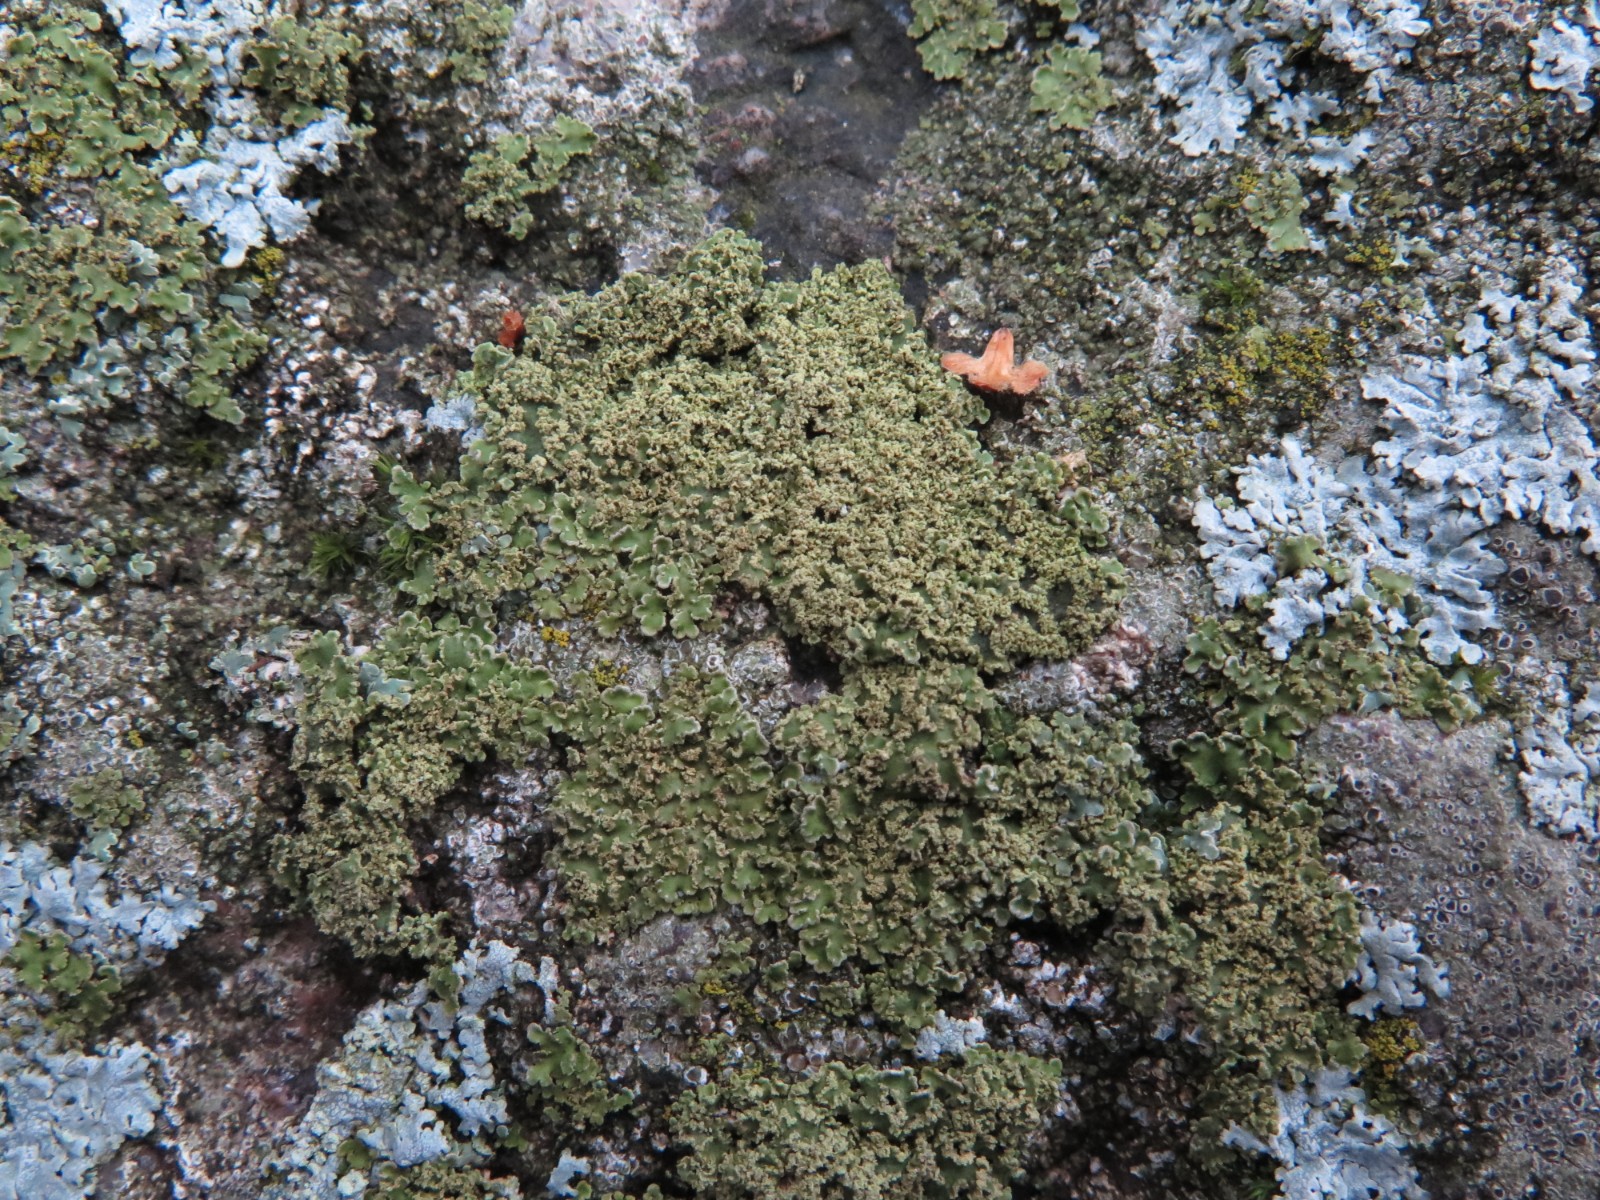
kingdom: Fungi
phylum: Ascomycota
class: Lecanoromycetes
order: Caliciales
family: Physciaceae
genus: Physconia
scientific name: Physconia perisidiosa
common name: liden dugrosetlav
